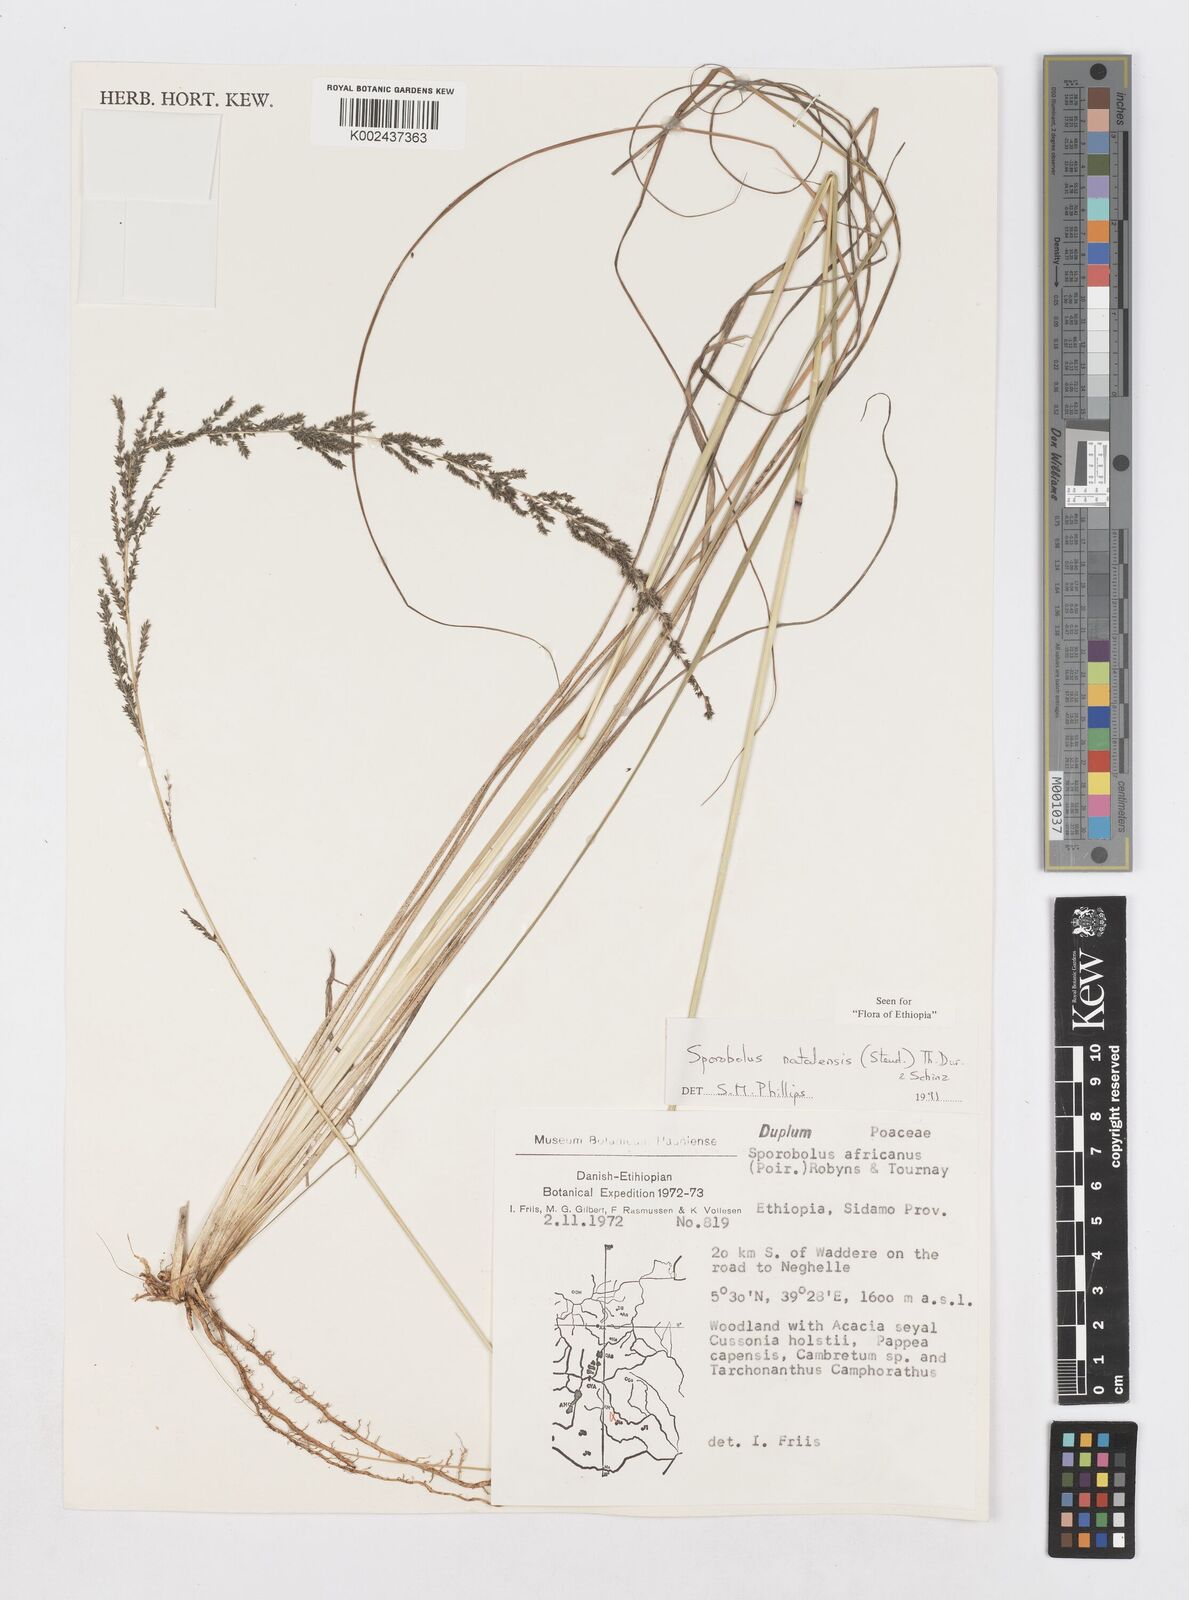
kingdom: Plantae
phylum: Tracheophyta
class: Liliopsida
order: Poales
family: Poaceae
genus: Sporobolus
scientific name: Sporobolus natalensis
